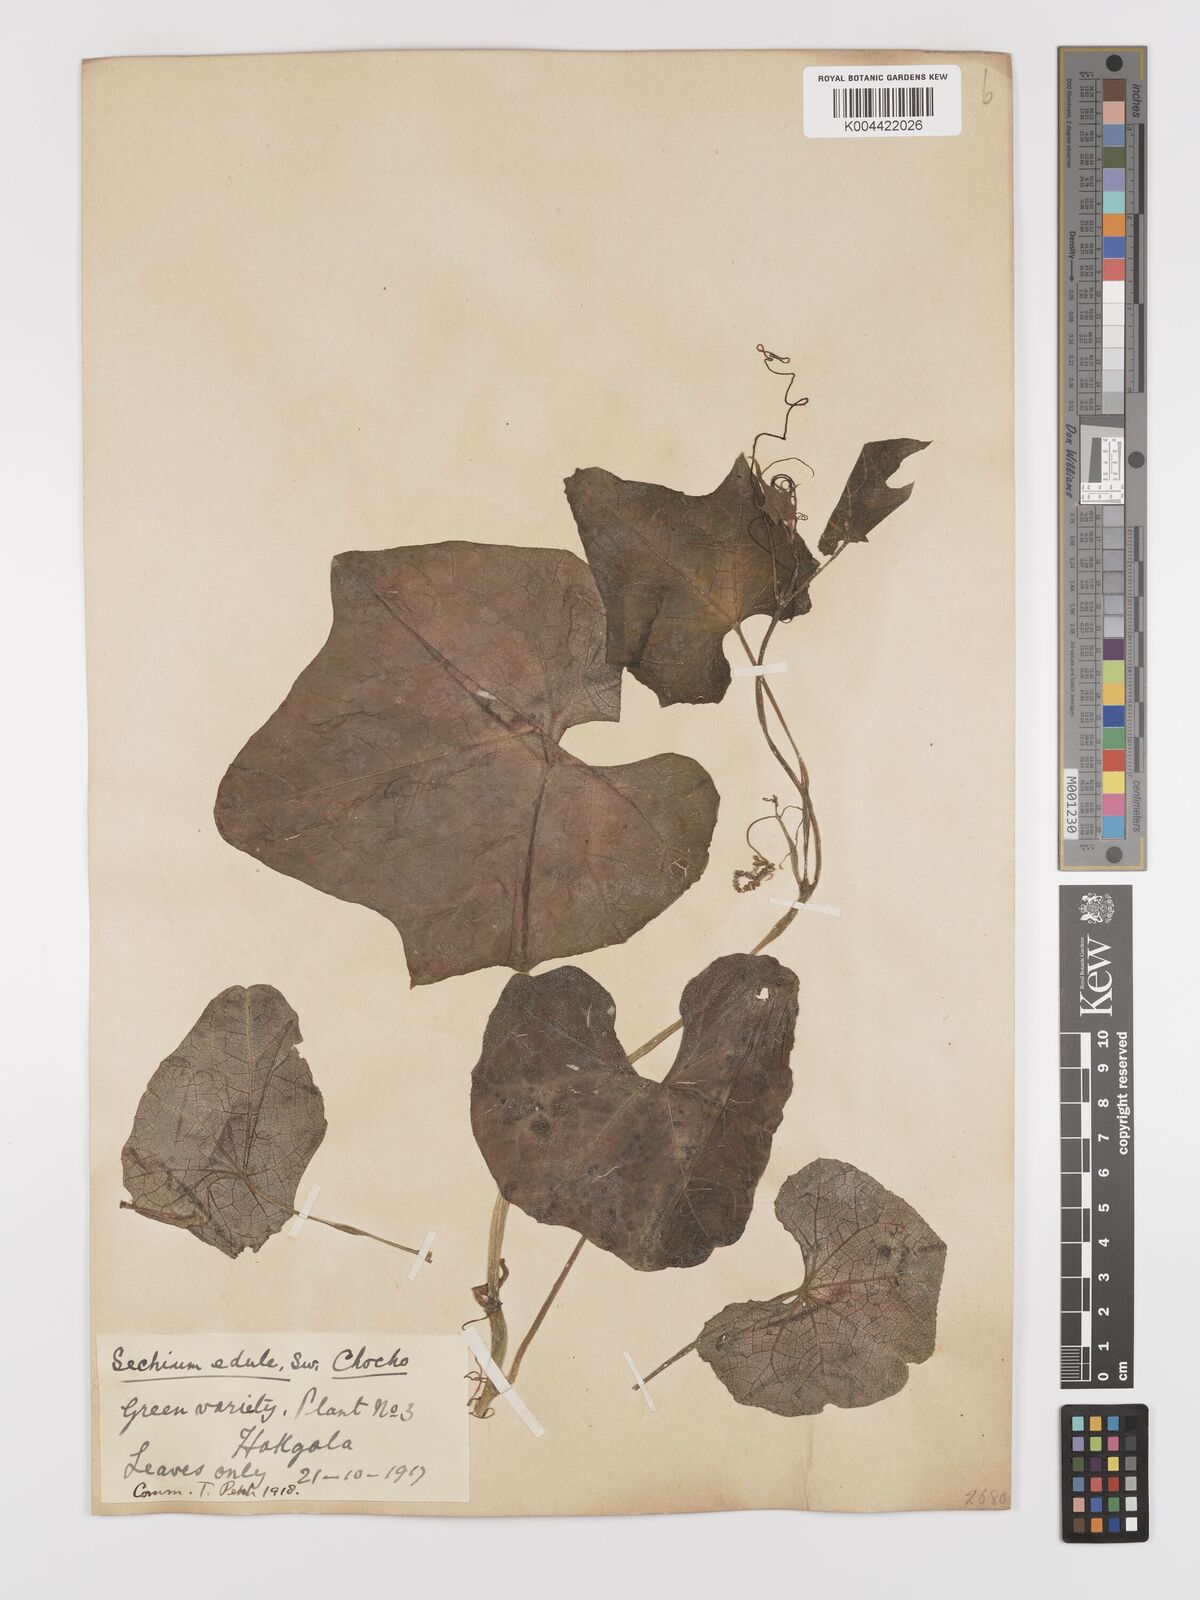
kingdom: Plantae
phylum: Tracheophyta
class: Magnoliopsida
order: Cucurbitales
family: Cucurbitaceae
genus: Sechium
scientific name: Sechium edule
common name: Chayote
